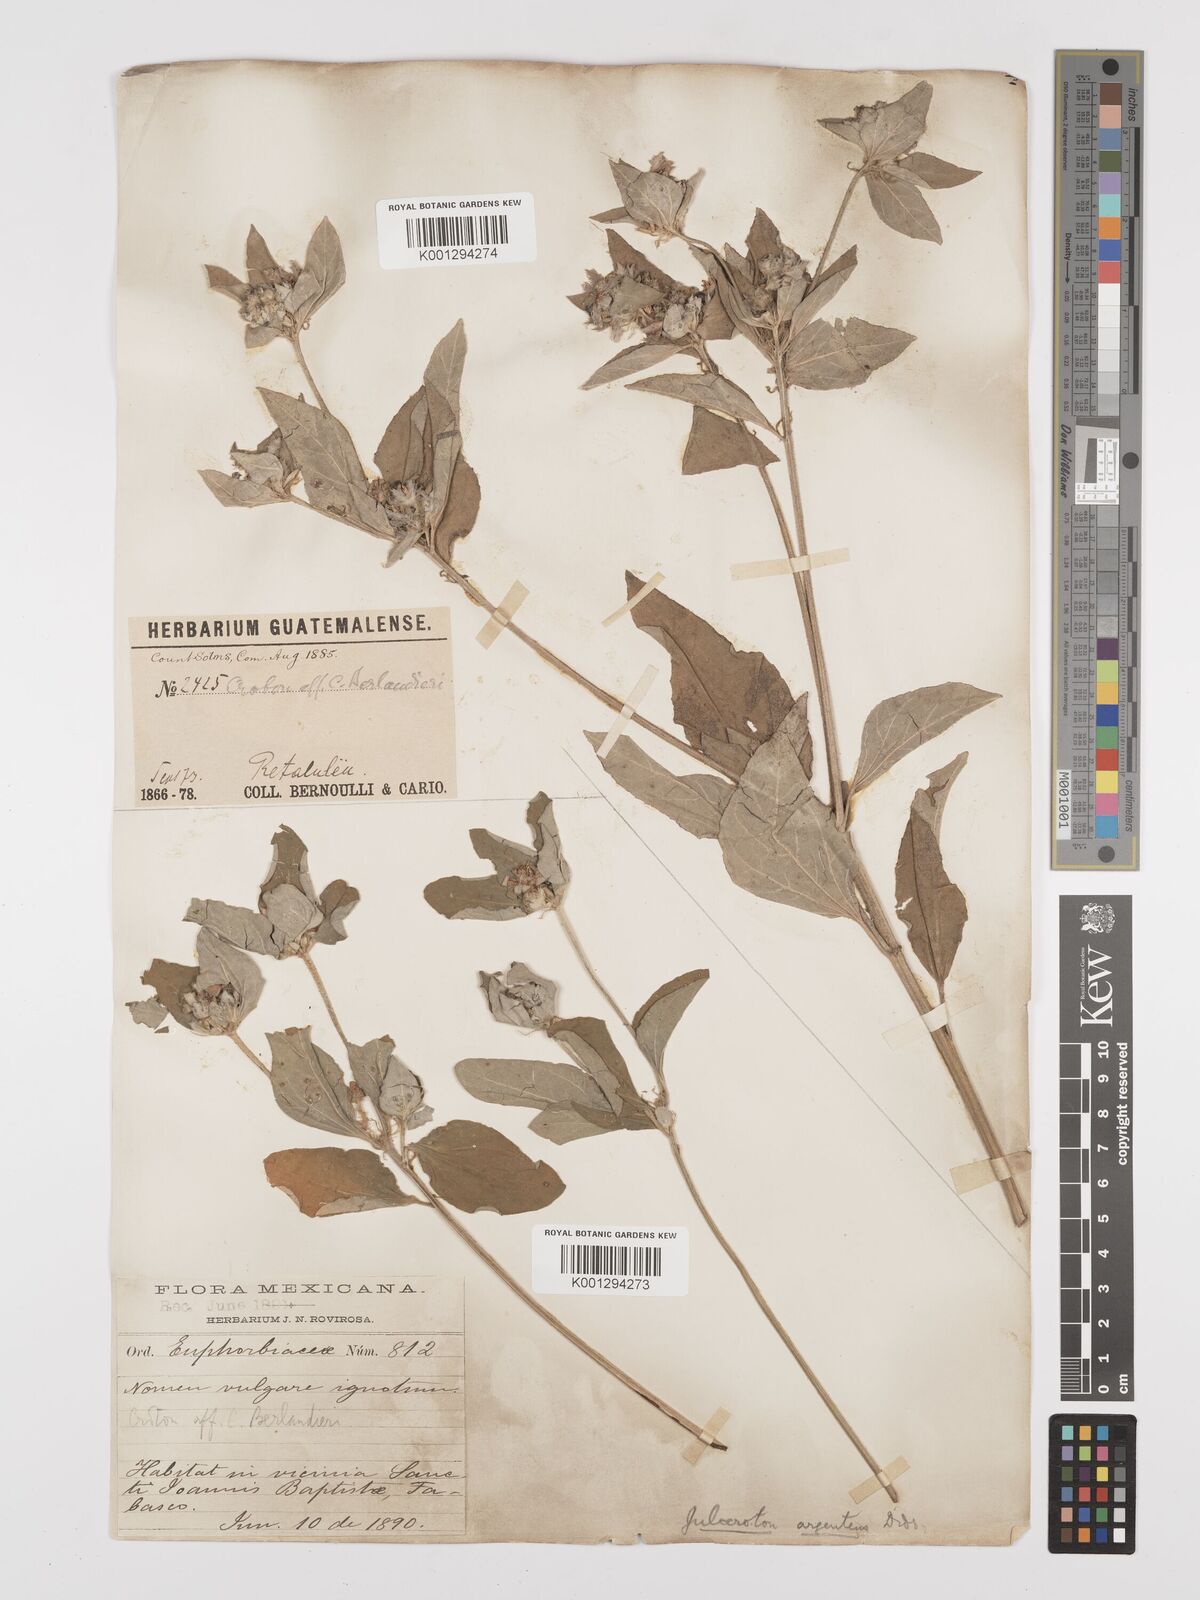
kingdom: Plantae
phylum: Tracheophyta
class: Magnoliopsida
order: Malpighiales
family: Euphorbiaceae
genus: Croton
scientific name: Croton argenteus
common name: Silver july croton
